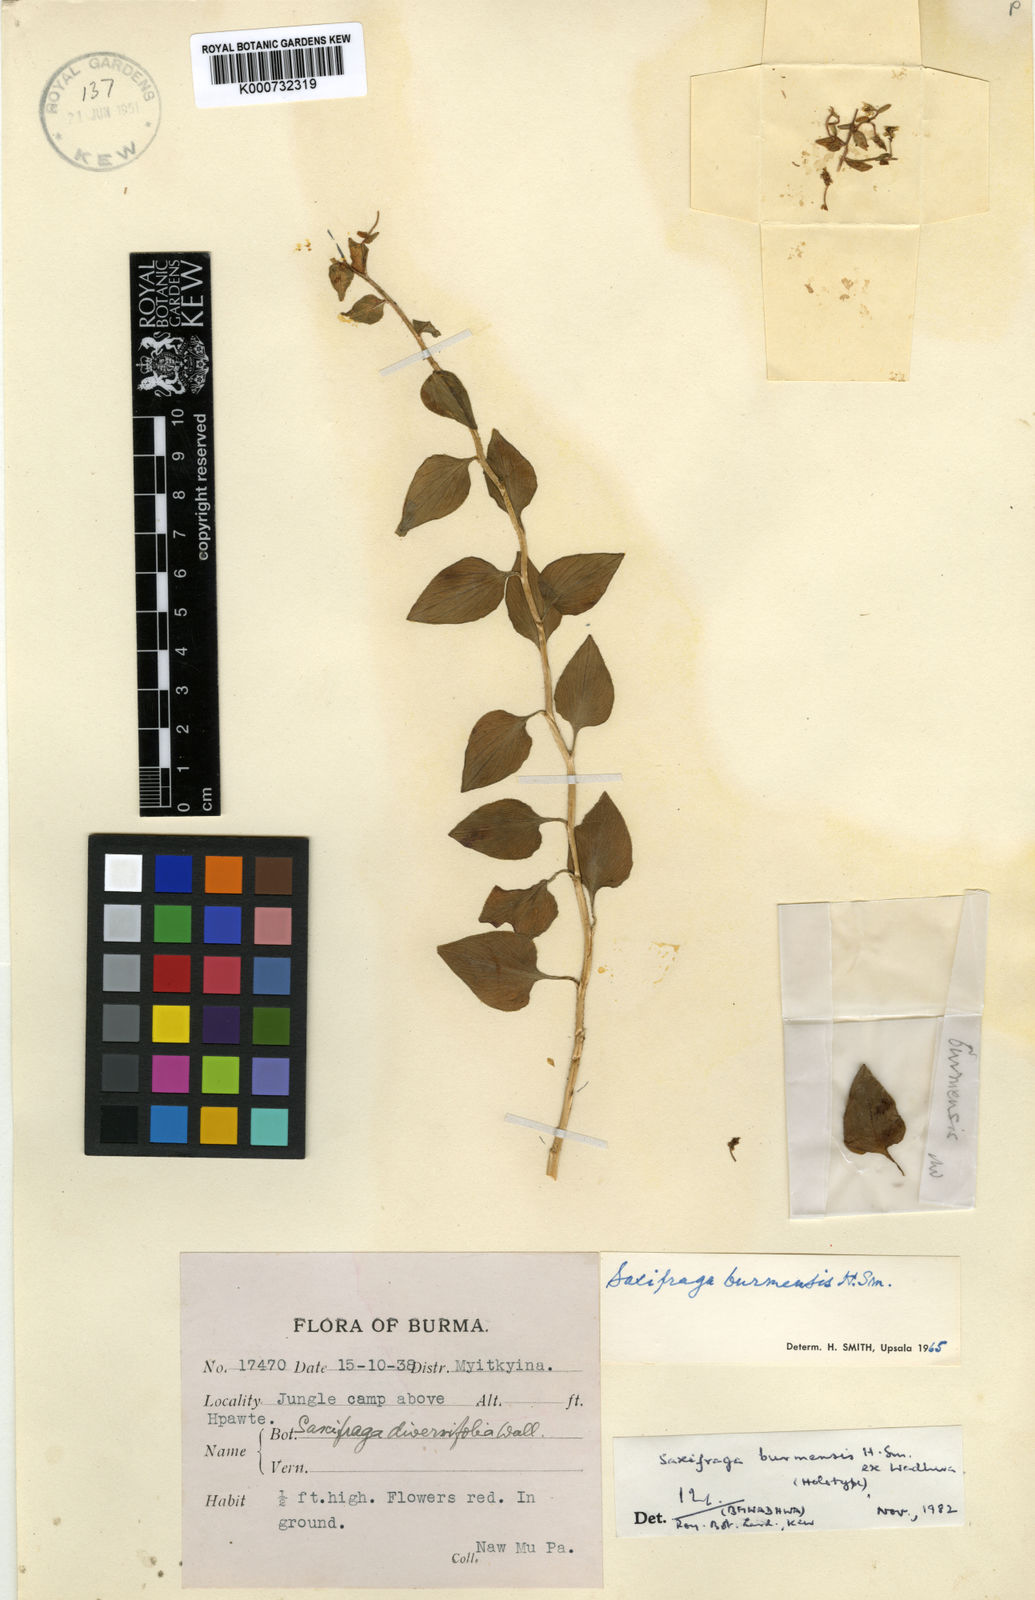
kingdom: Plantae
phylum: Tracheophyta
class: Magnoliopsida
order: Saxifragales
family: Saxifragaceae
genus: Saxifraga
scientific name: Saxifraga burmensis
